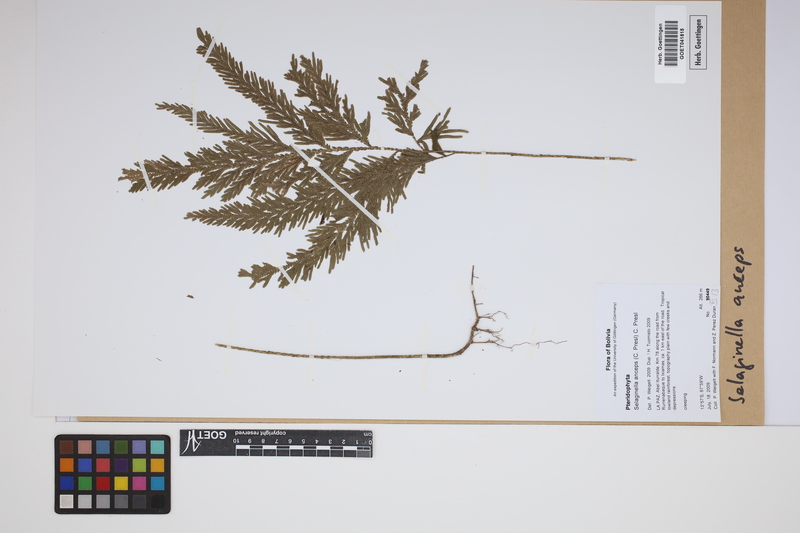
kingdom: Plantae
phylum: Tracheophyta
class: Lycopodiopsida
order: Selaginellales
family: Selaginellaceae
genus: Selaginella
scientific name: Selaginella anceps
